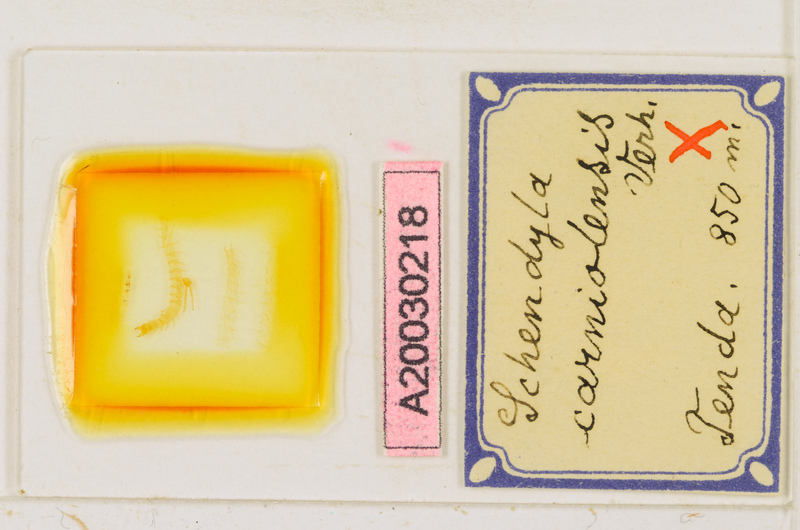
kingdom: Animalia
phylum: Arthropoda
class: Chilopoda
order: Geophilomorpha
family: Schendylidae
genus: Schendyla
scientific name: Schendyla carniolensis
